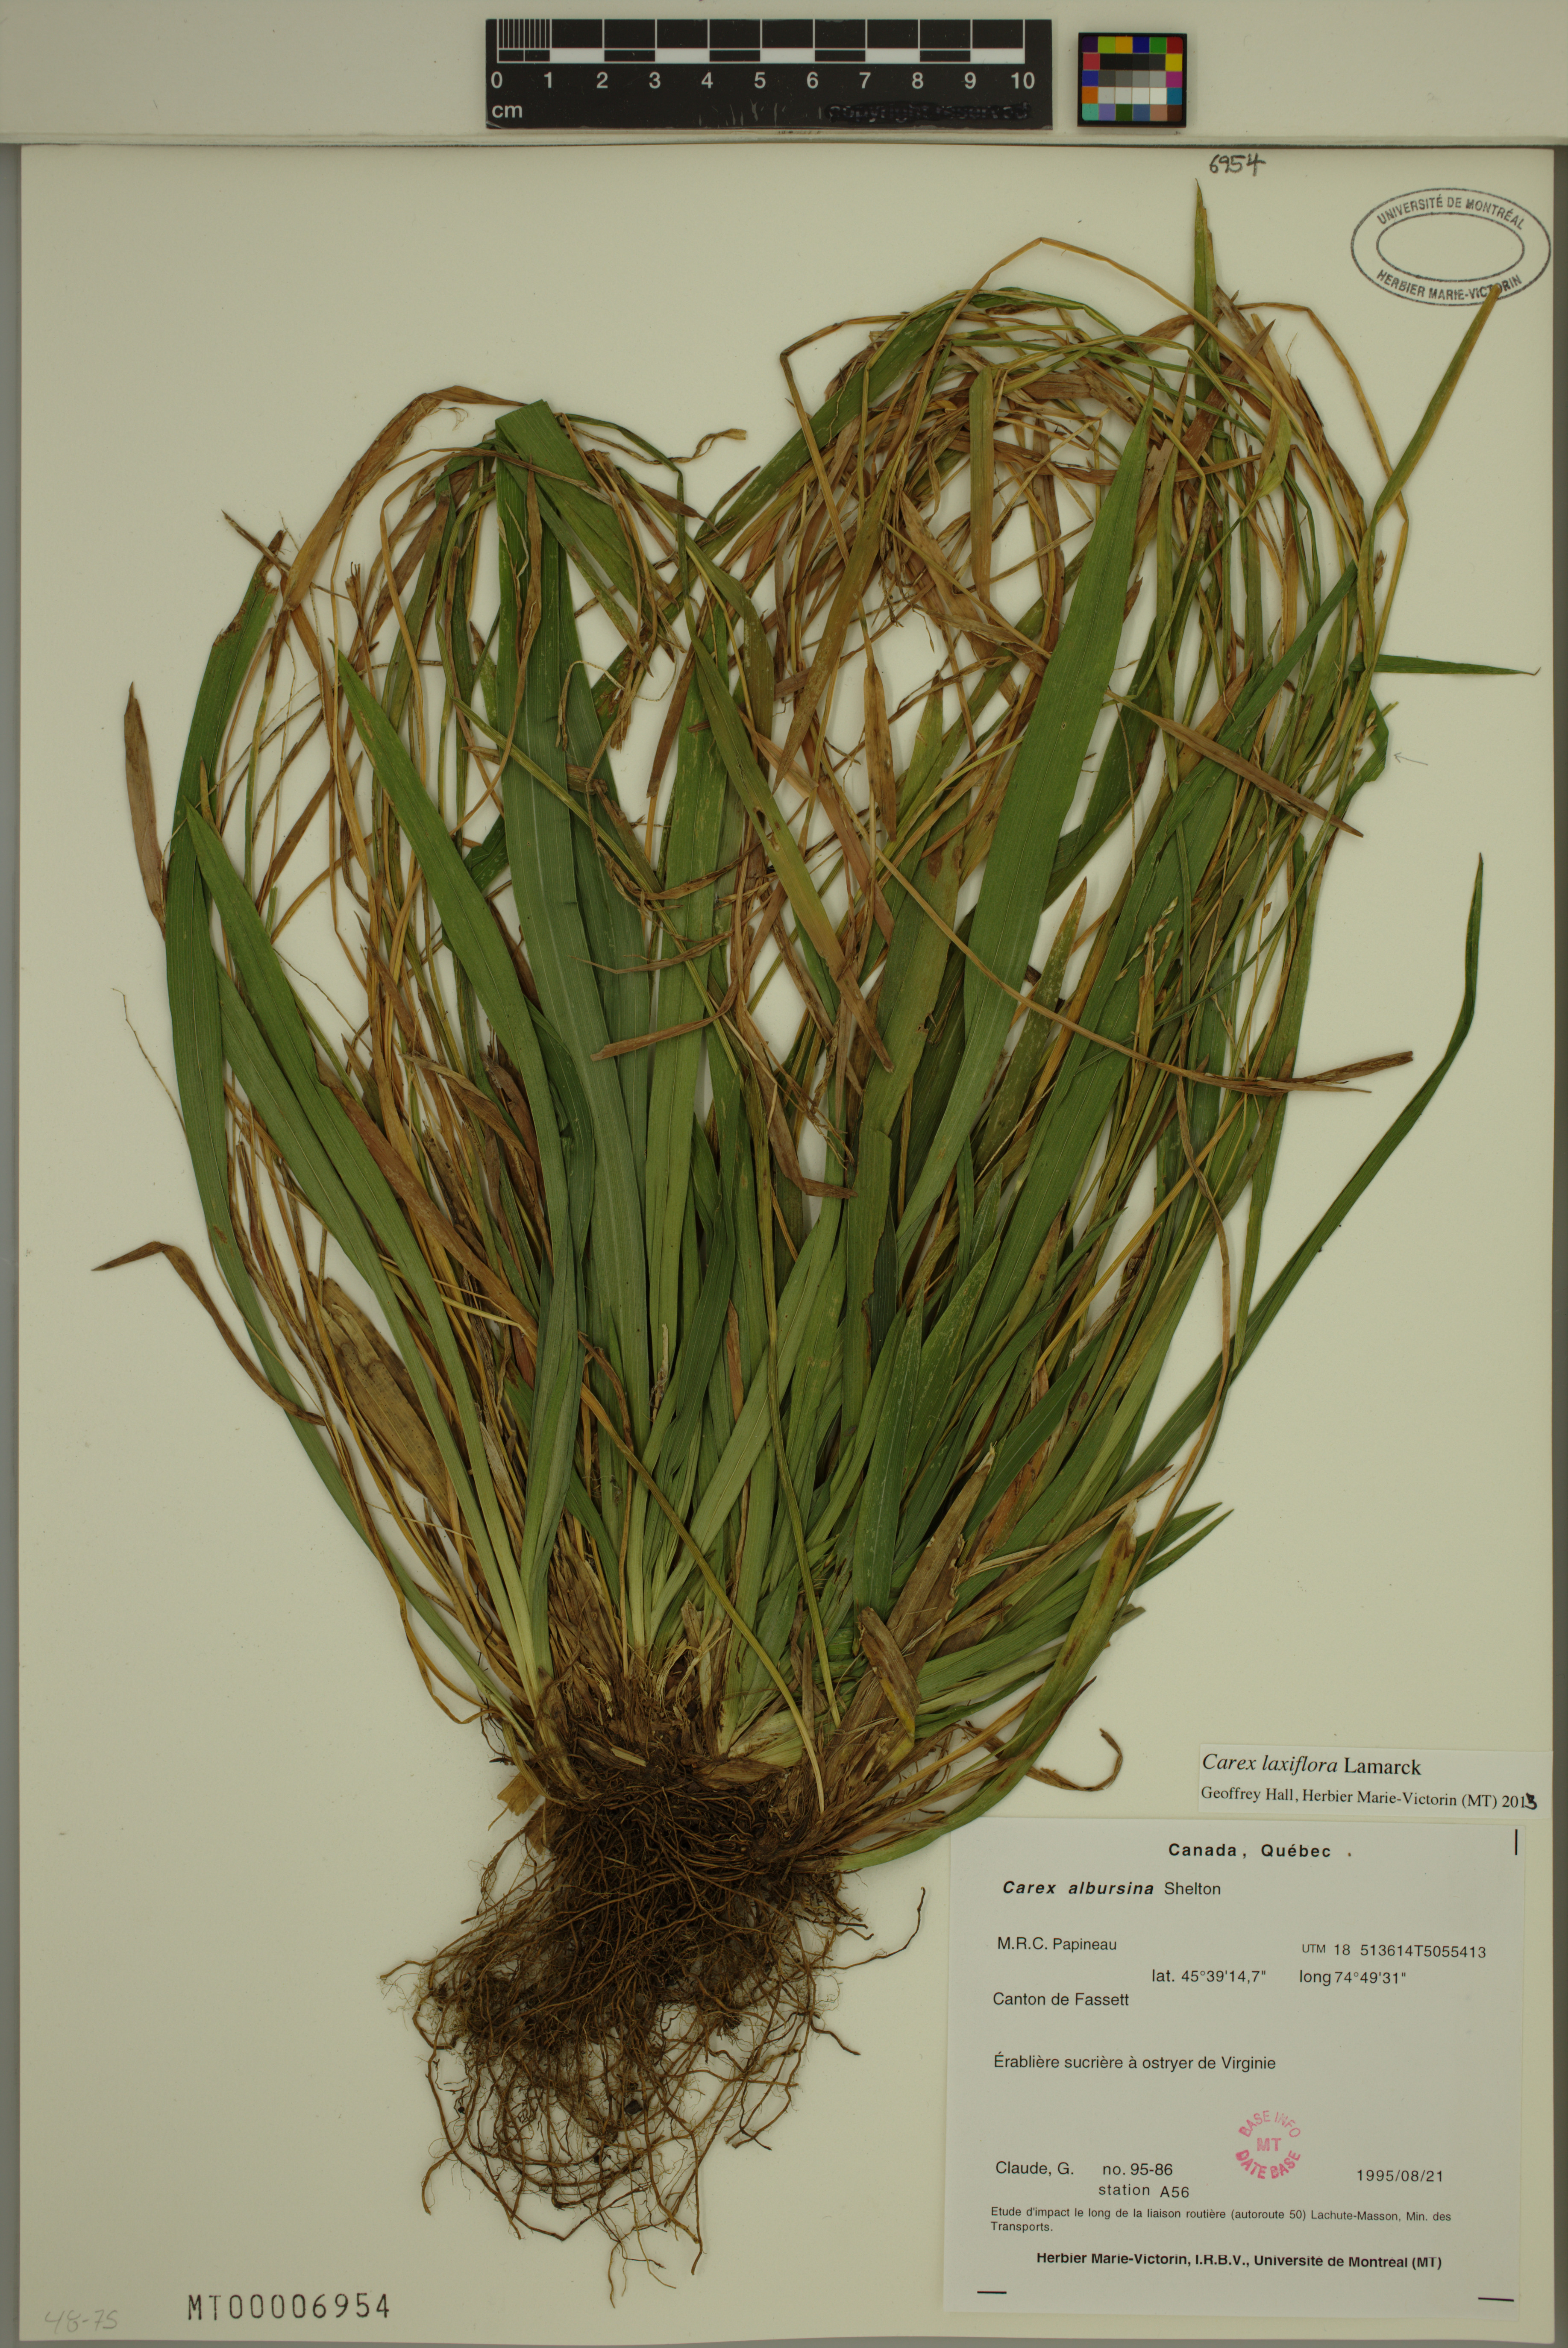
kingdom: Plantae
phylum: Tracheophyta
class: Liliopsida
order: Poales
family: Cyperaceae
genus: Carex
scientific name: Carex laxiflora
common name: Beech wood sedge
